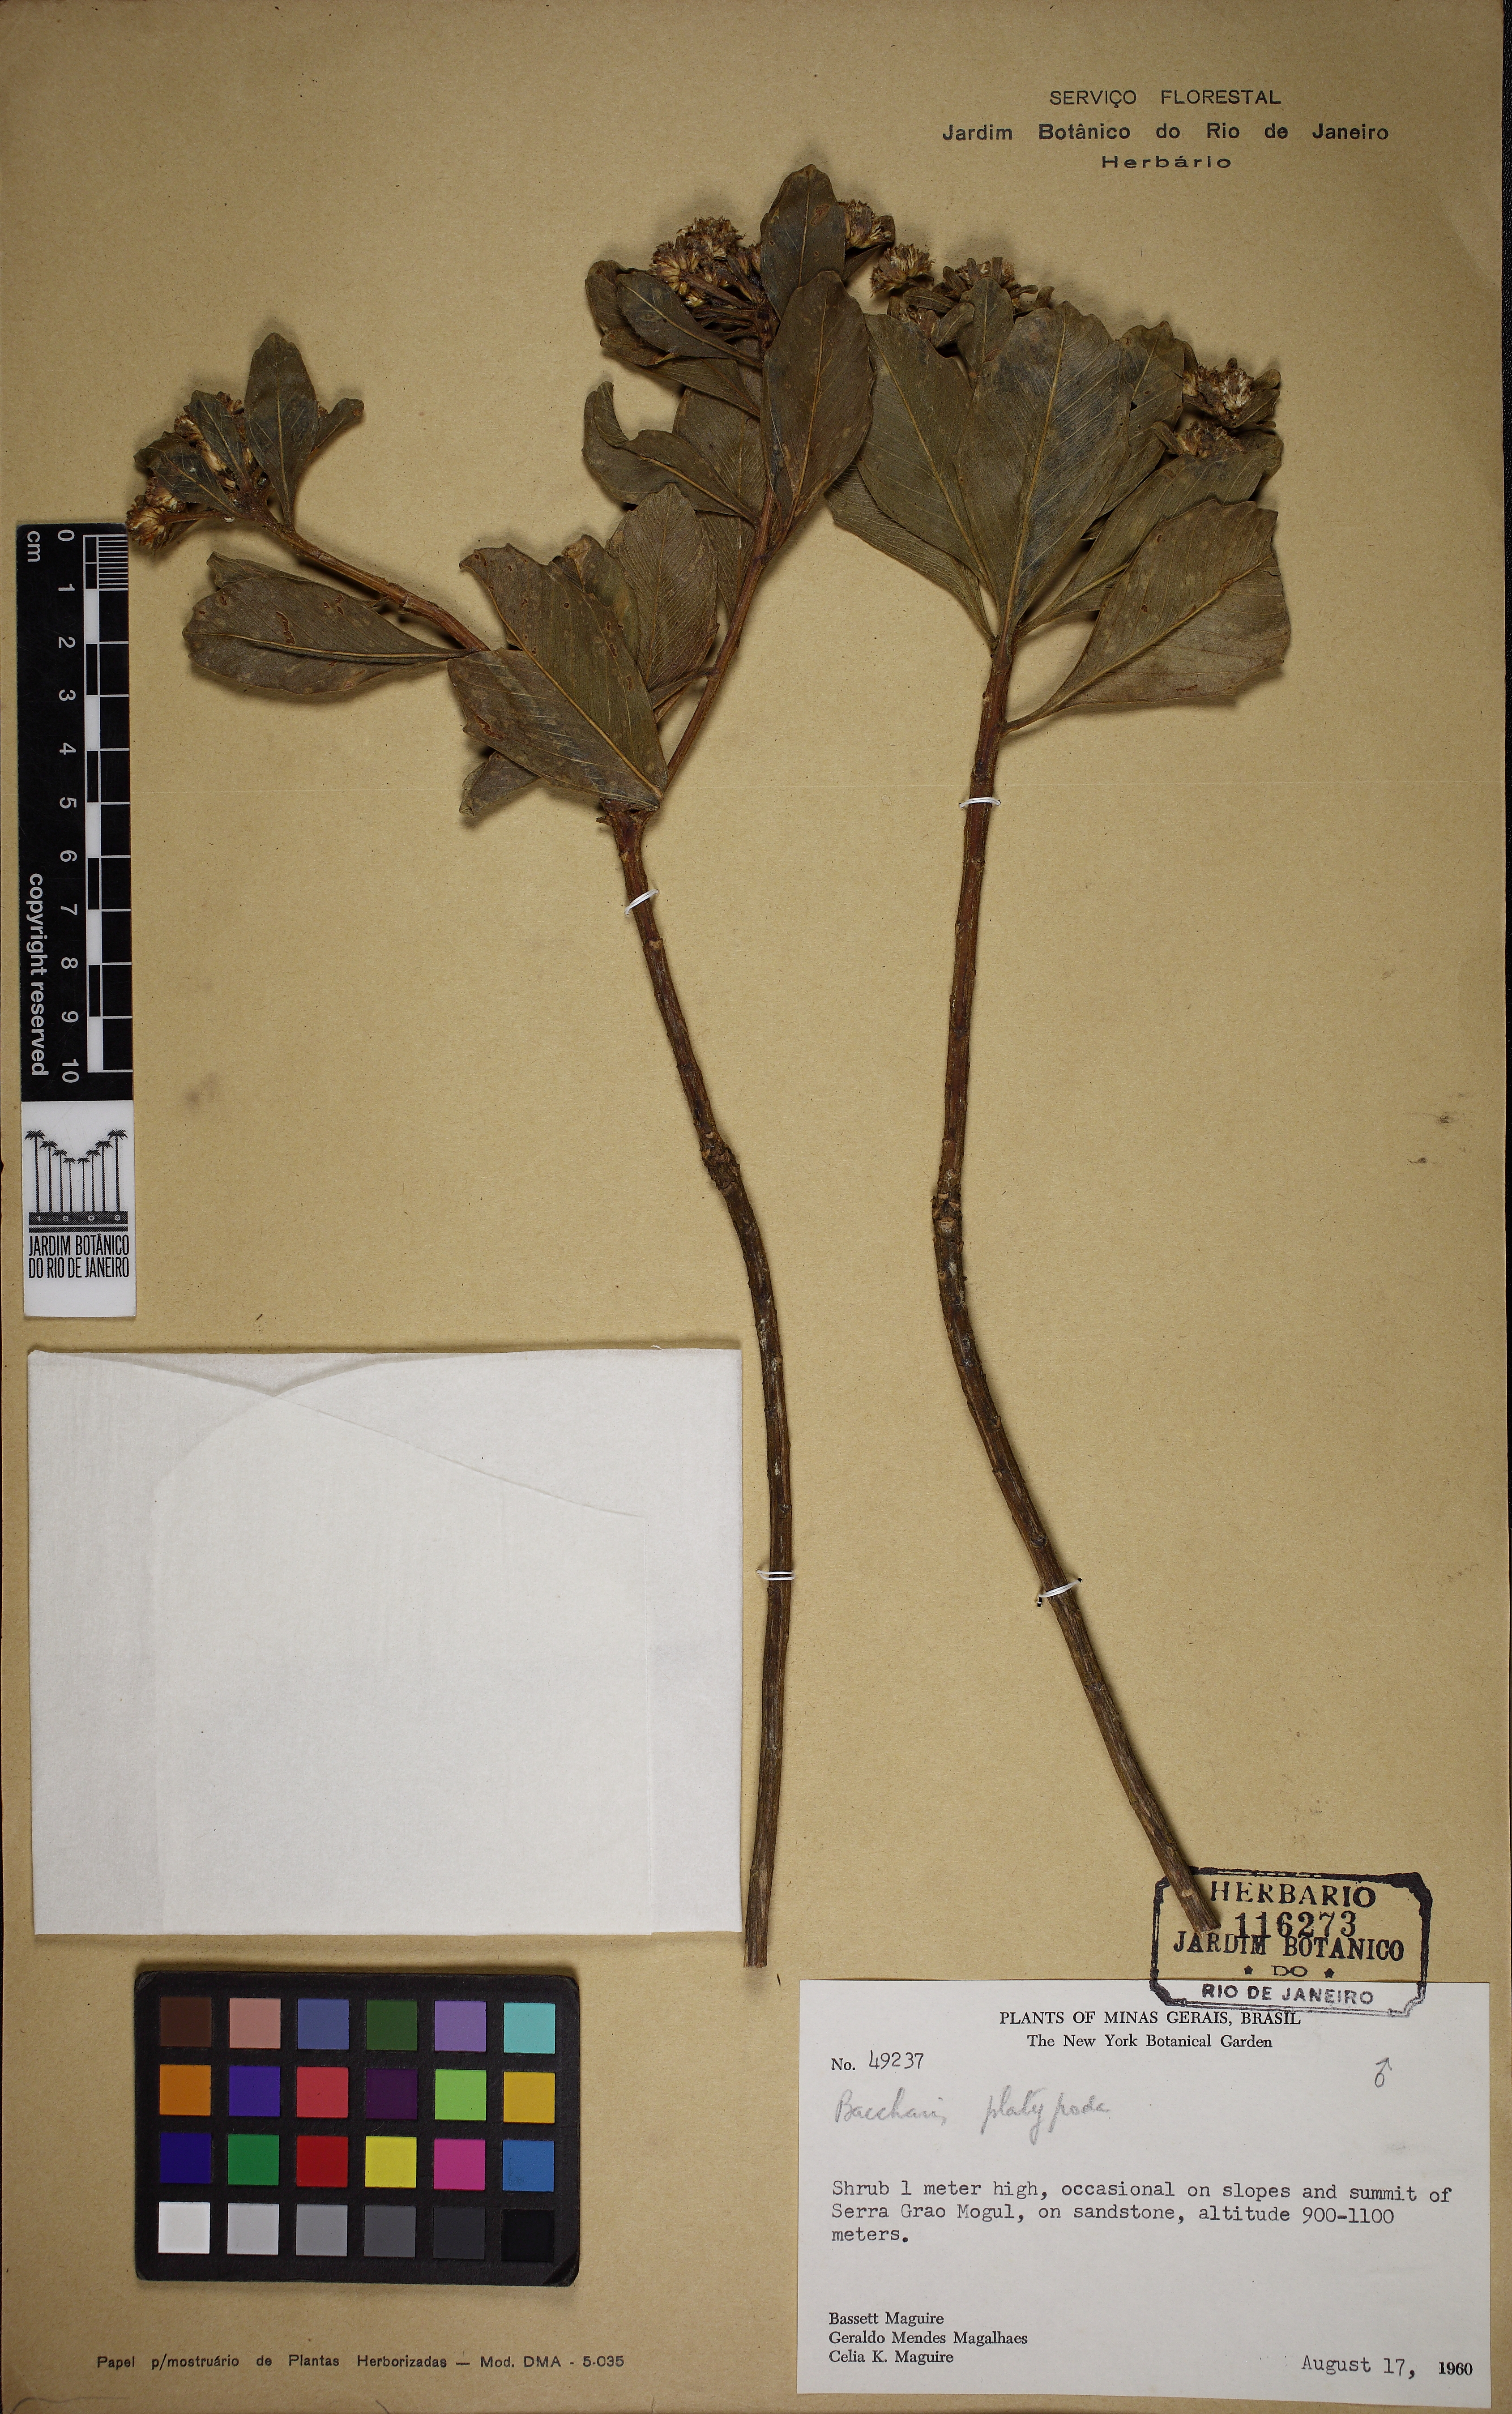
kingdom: Plantae
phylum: Tracheophyta
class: Magnoliopsida
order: Asterales
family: Asteraceae
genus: Baccharis
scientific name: Baccharis platypoda
